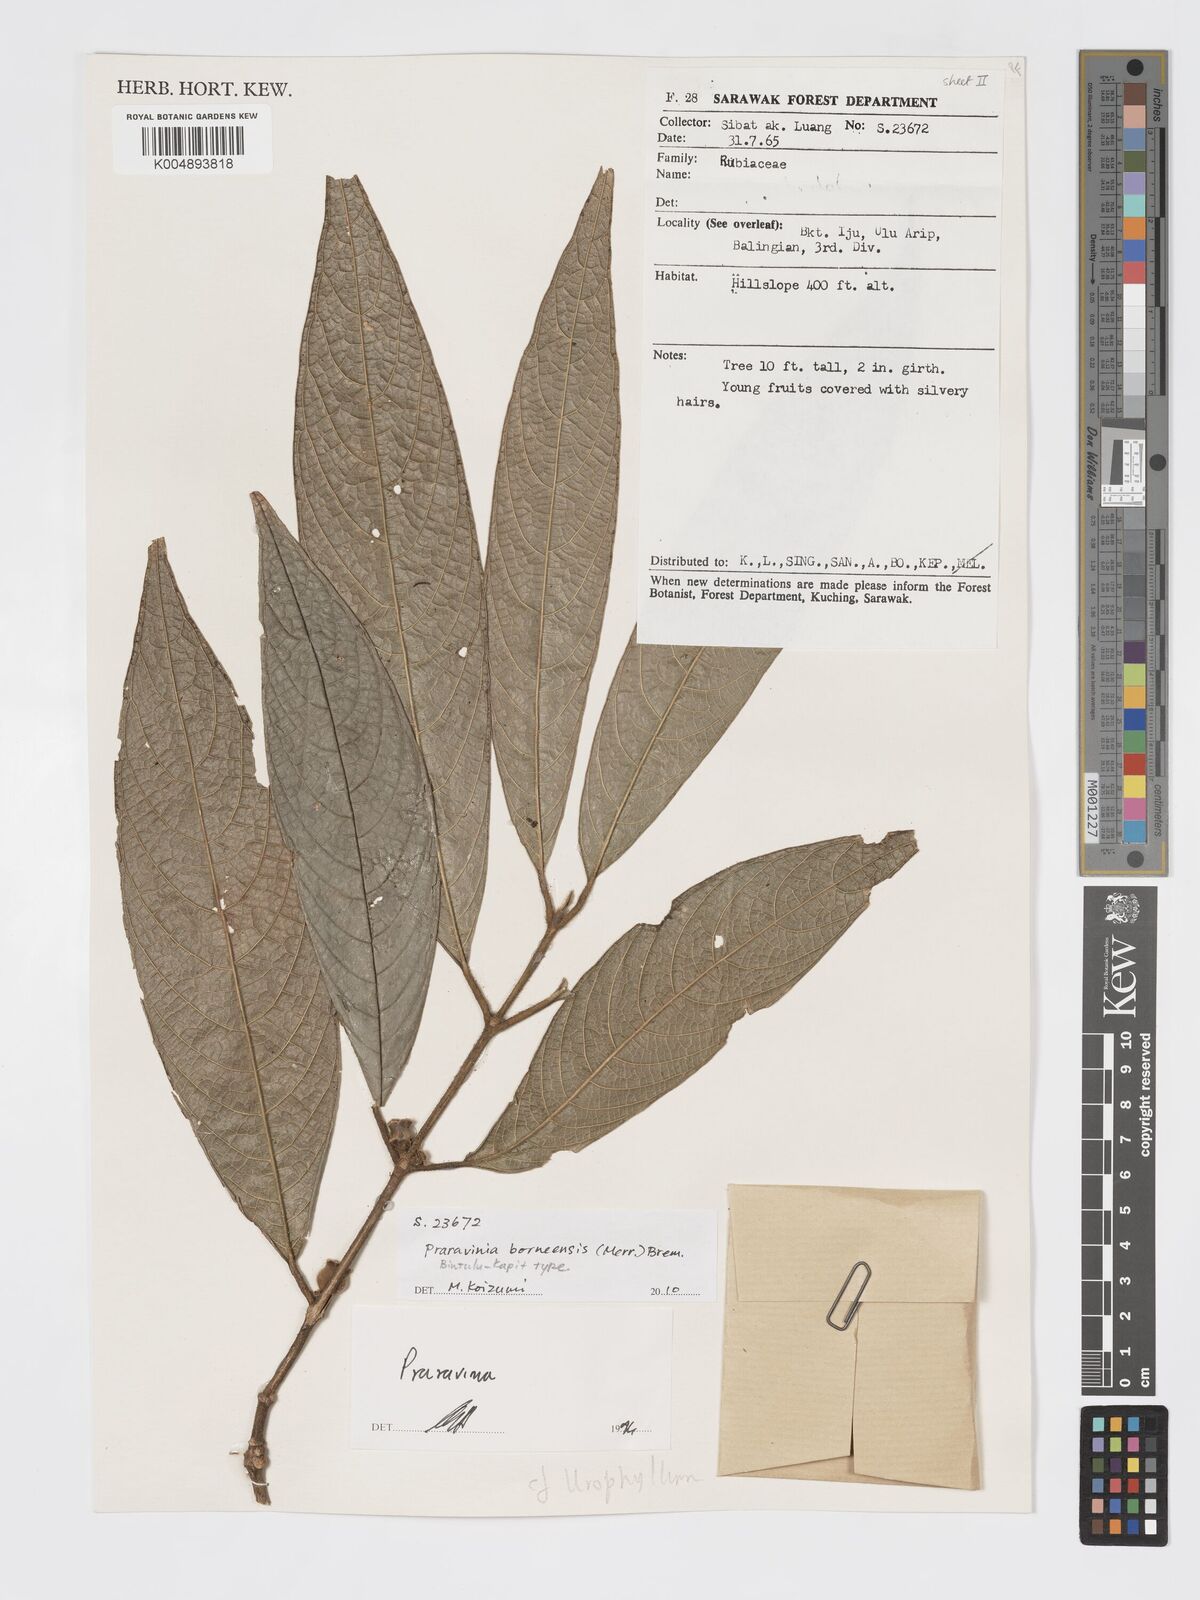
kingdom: Plantae
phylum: Tracheophyta
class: Magnoliopsida
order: Gentianales
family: Rubiaceae
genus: Praravinia
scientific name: Praravinia borneensis
